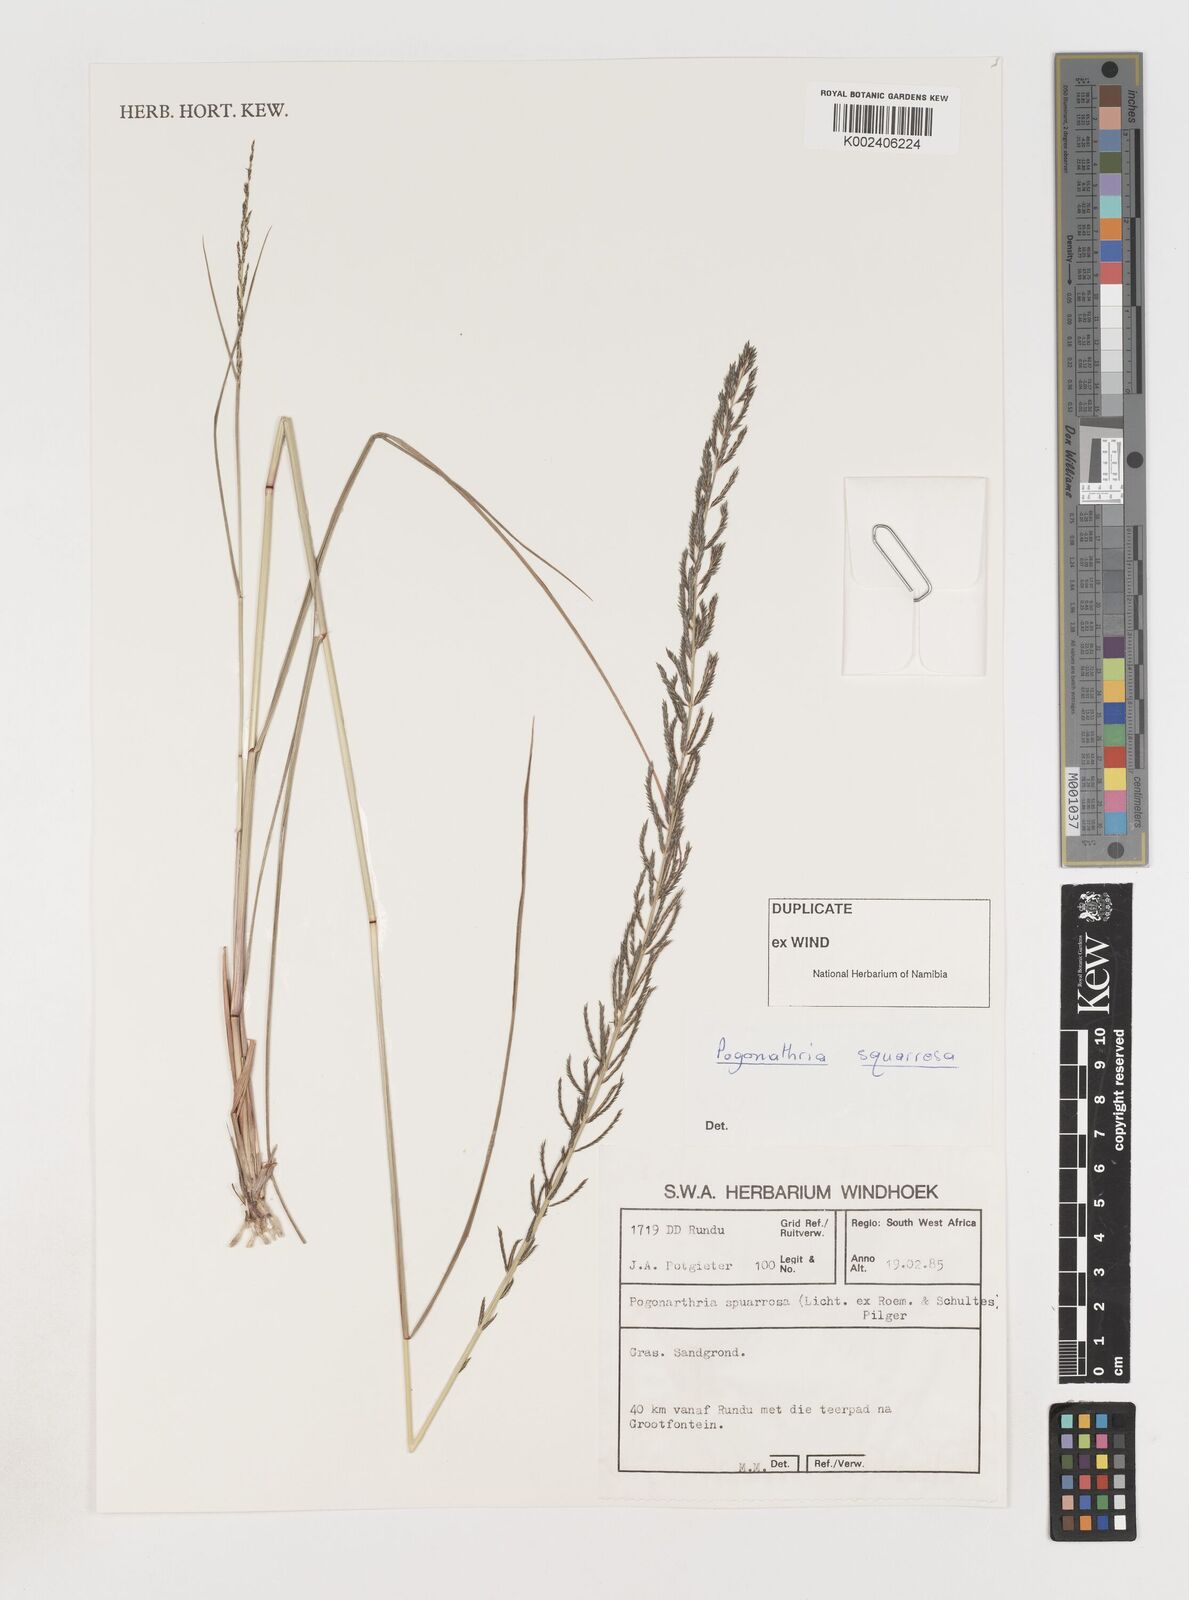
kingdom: Plantae
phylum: Tracheophyta
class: Liliopsida
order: Poales
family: Poaceae
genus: Pogonarthria
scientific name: Pogonarthria squarrosa
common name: Grass
